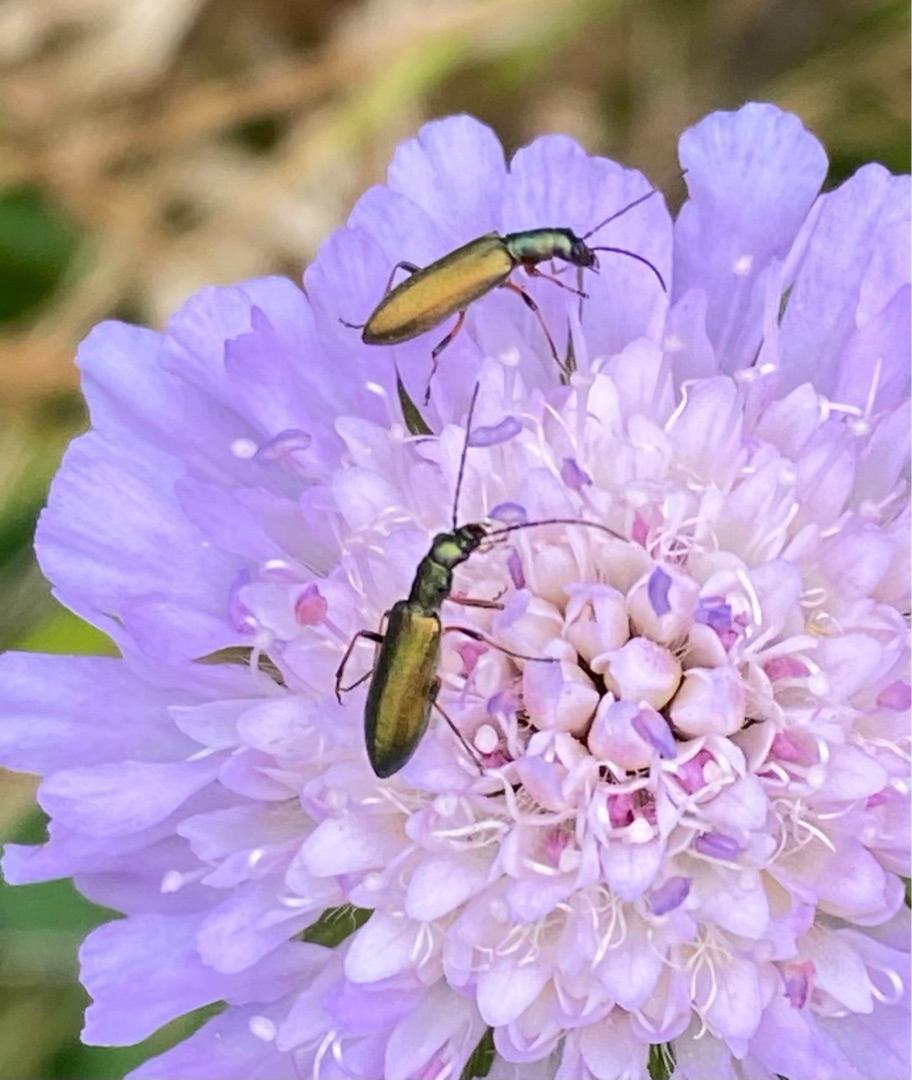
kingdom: Animalia
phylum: Arthropoda
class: Insecta
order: Coleoptera
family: Oedemeridae
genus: Chrysanthia
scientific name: Chrysanthia geniculata
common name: Grøn solbille
